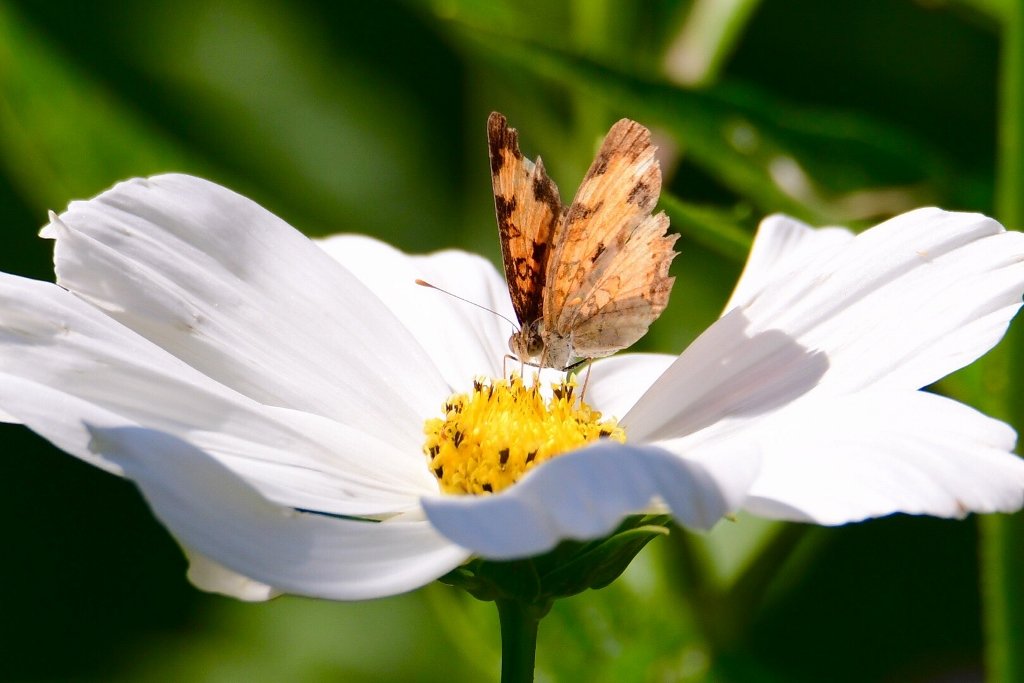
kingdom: Animalia
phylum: Arthropoda
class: Insecta
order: Lepidoptera
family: Nymphalidae
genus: Phyciodes
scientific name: Phyciodes tharos
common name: Northern Crescent
